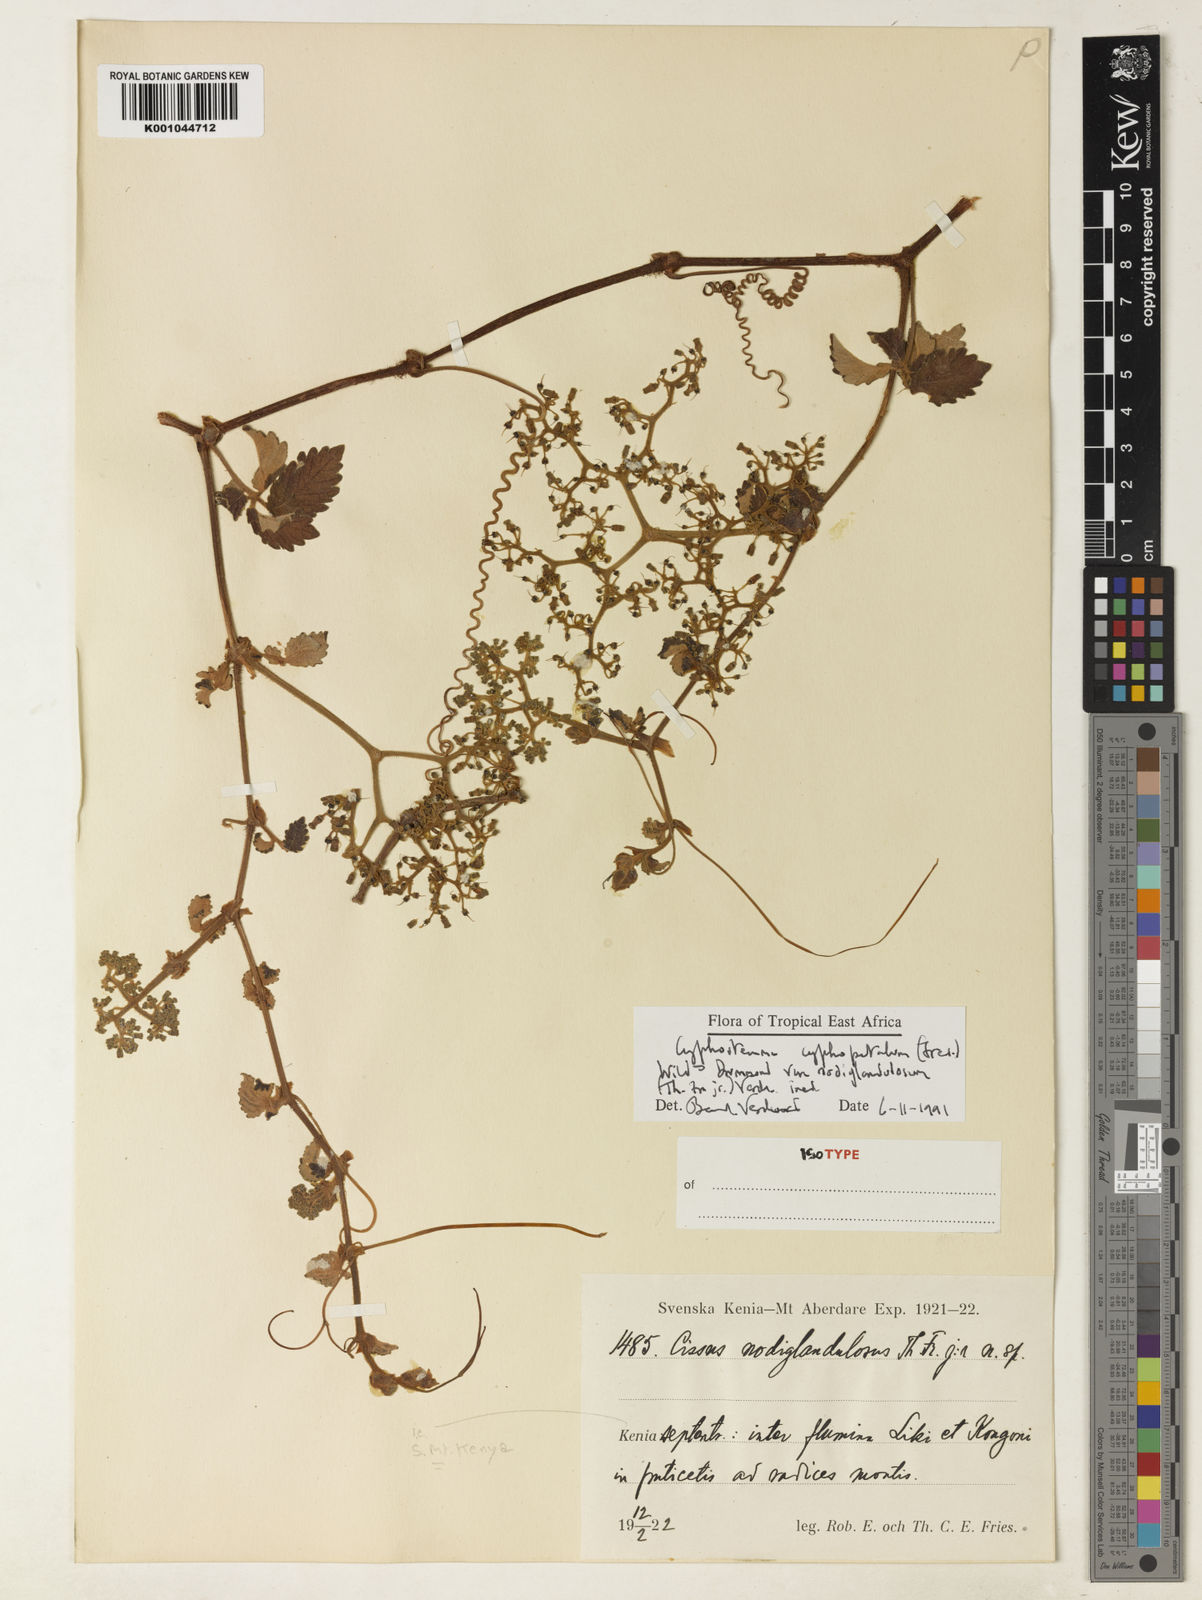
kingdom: Plantae
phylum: Tracheophyta
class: Magnoliopsida
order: Vitales
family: Vitaceae
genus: Cyphostemma
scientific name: Cyphostemma cyphopetalum
